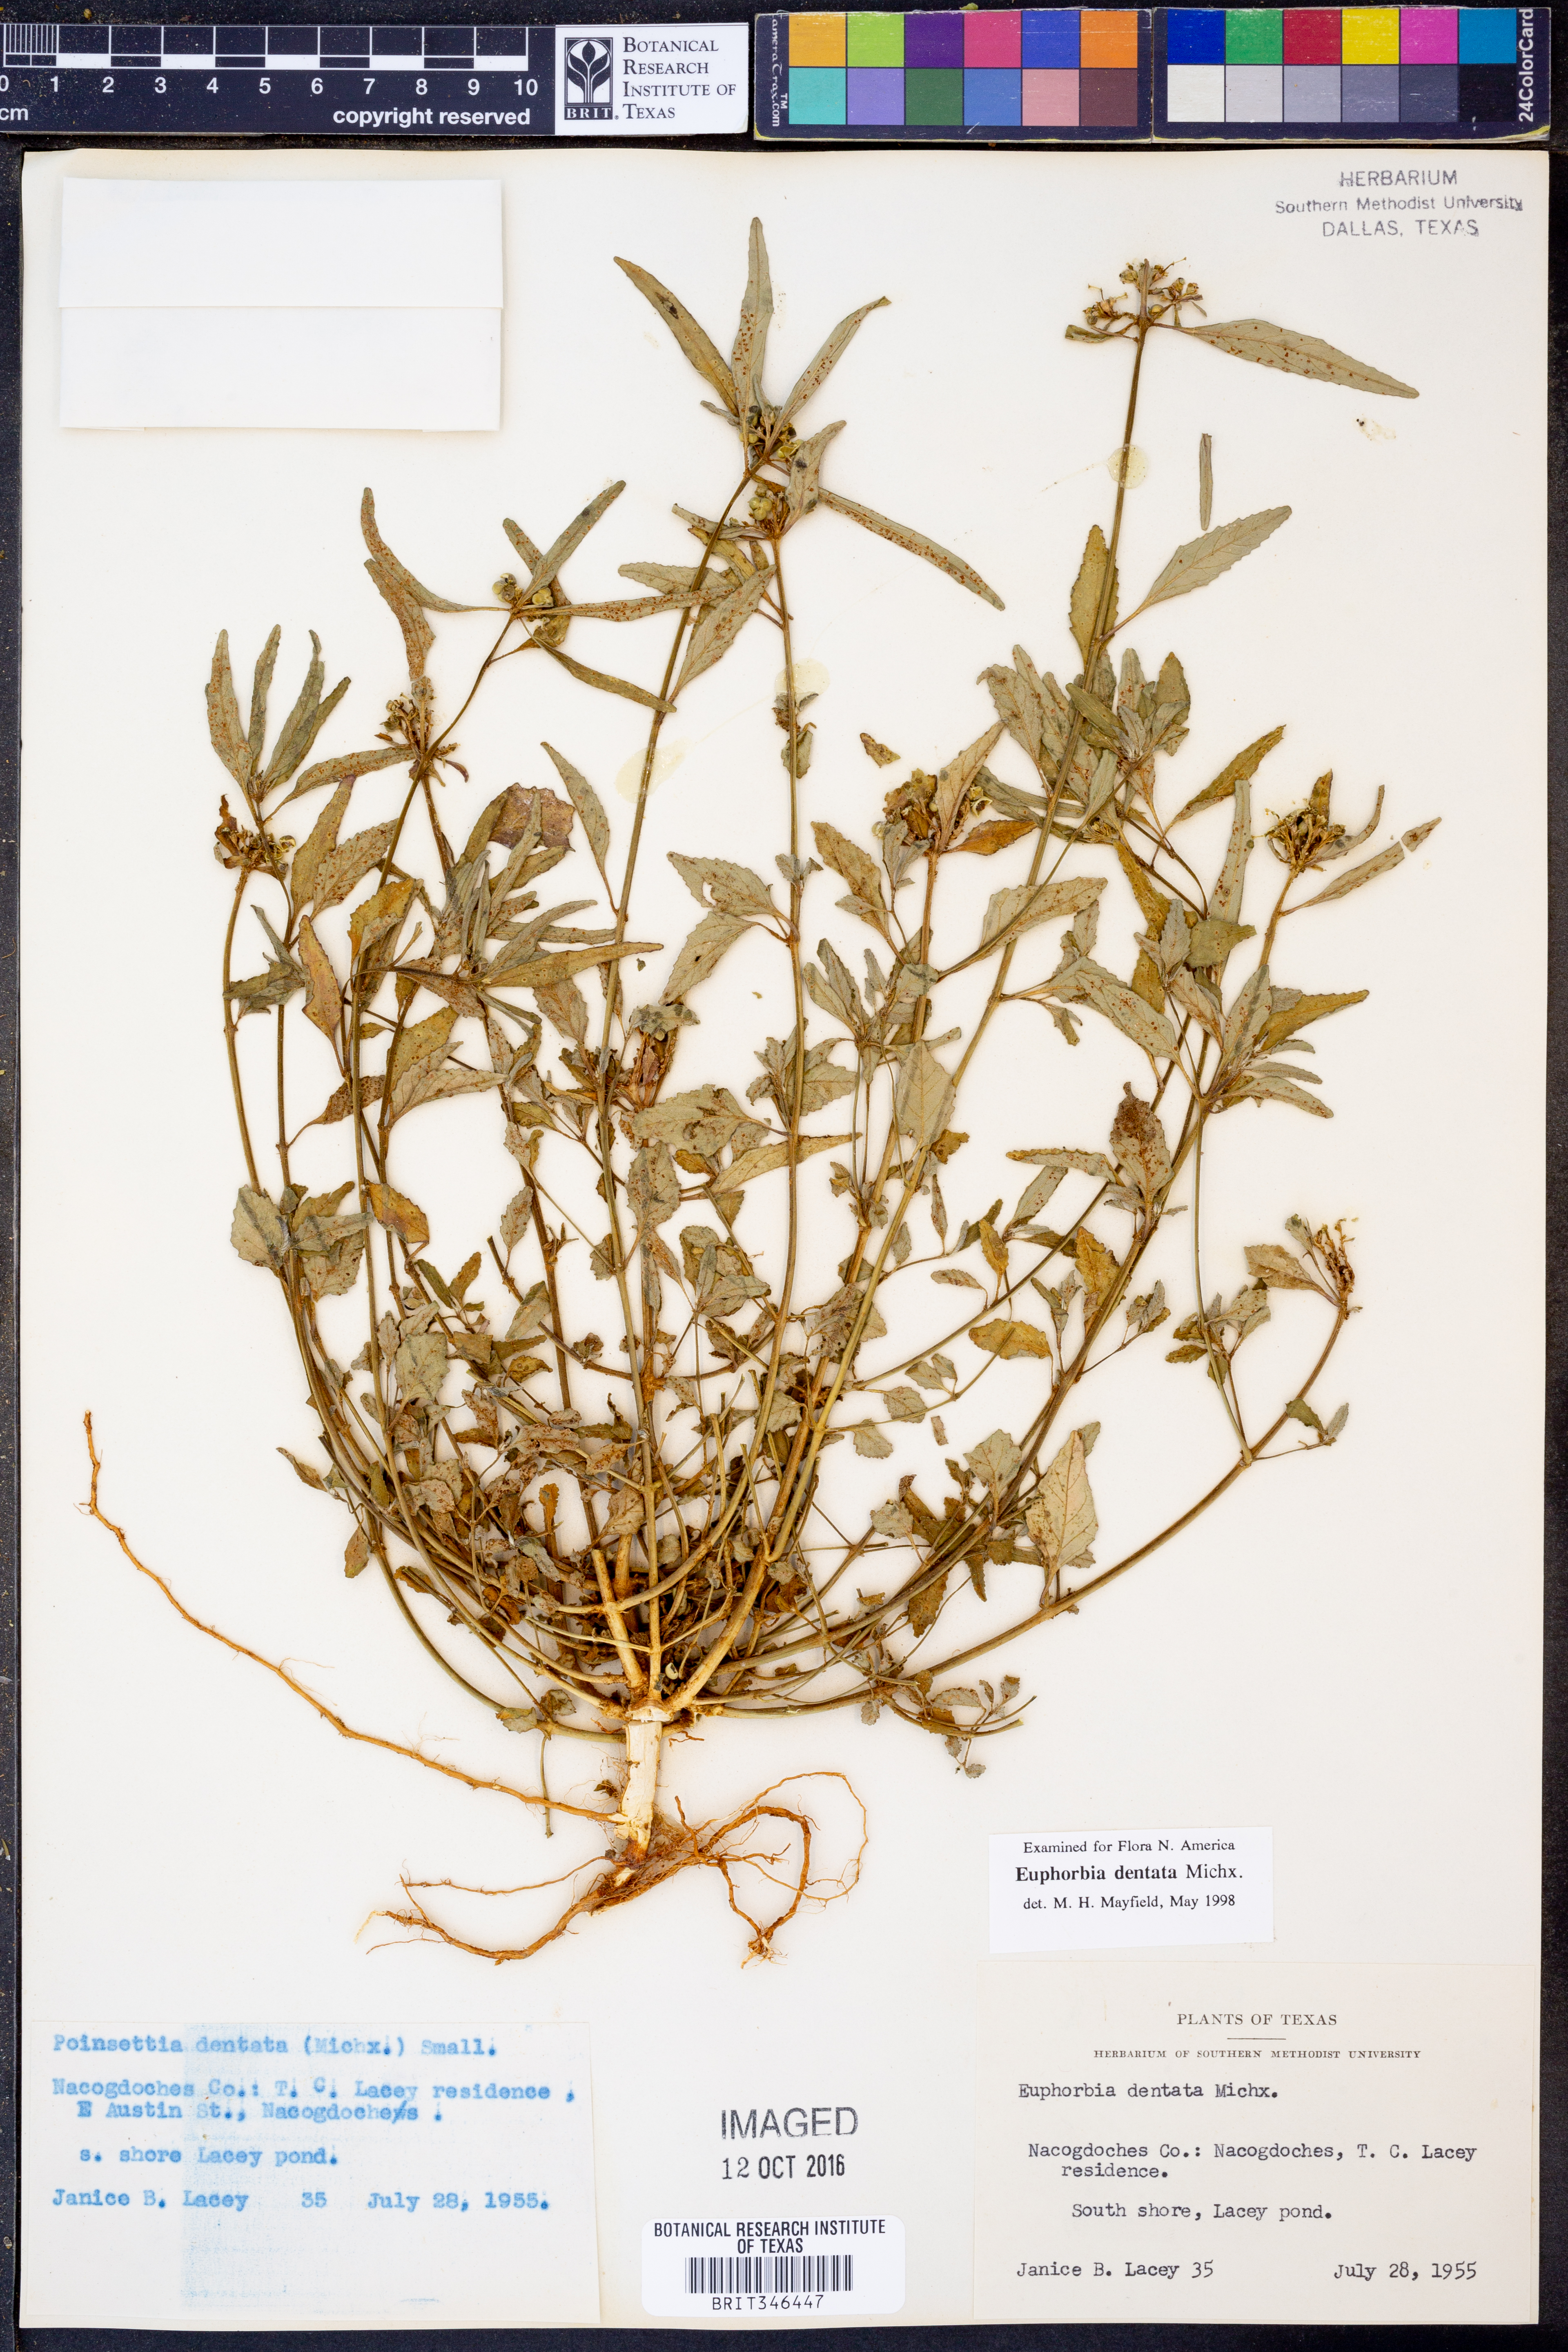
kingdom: Plantae
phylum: Tracheophyta
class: Magnoliopsida
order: Malpighiales
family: Euphorbiaceae
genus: Euphorbia
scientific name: Euphorbia dentata
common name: Dentate spurge
